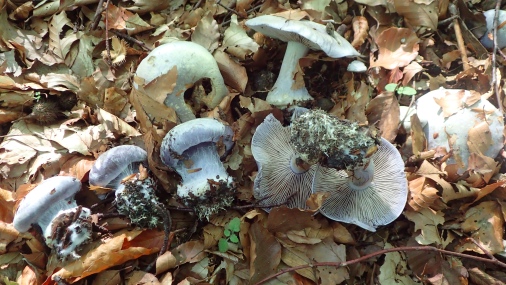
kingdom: Fungi
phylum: Basidiomycota
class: Agaricomycetes
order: Agaricales
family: Cortinariaceae
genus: Cortinarius
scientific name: Cortinarius caerulescens
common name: blåkødet slørhat
